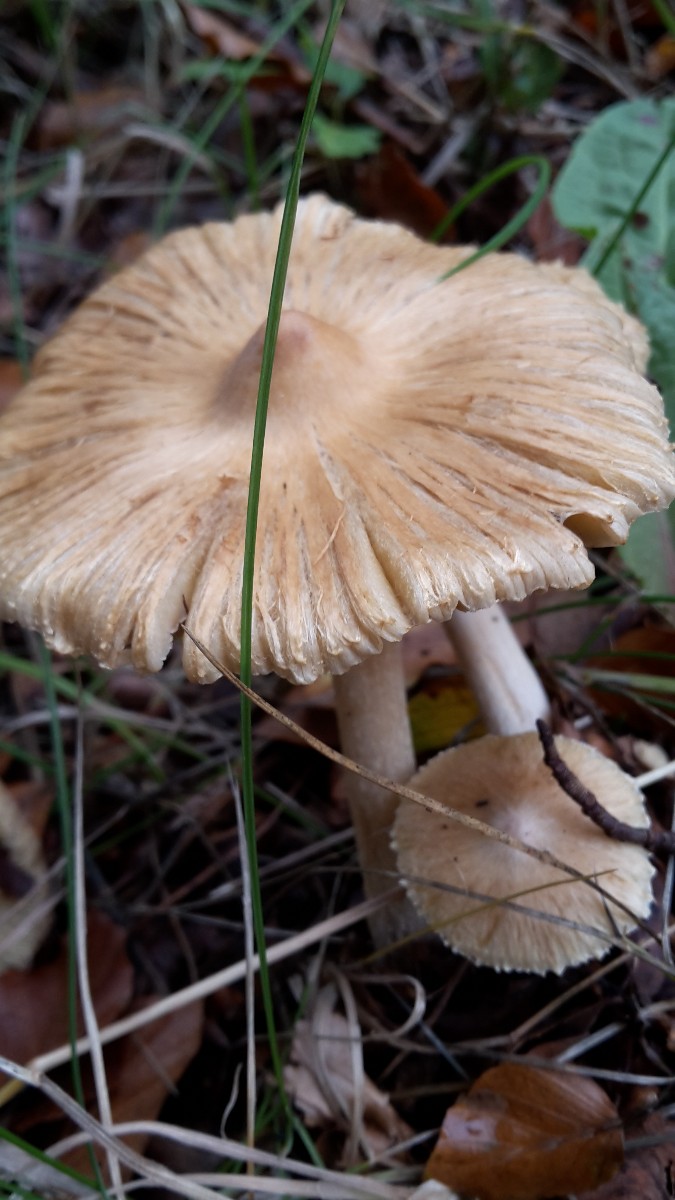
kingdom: Fungi
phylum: Basidiomycota
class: Agaricomycetes
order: Agaricales
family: Inocybaceae
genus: Pseudosperma
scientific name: Pseudosperma
